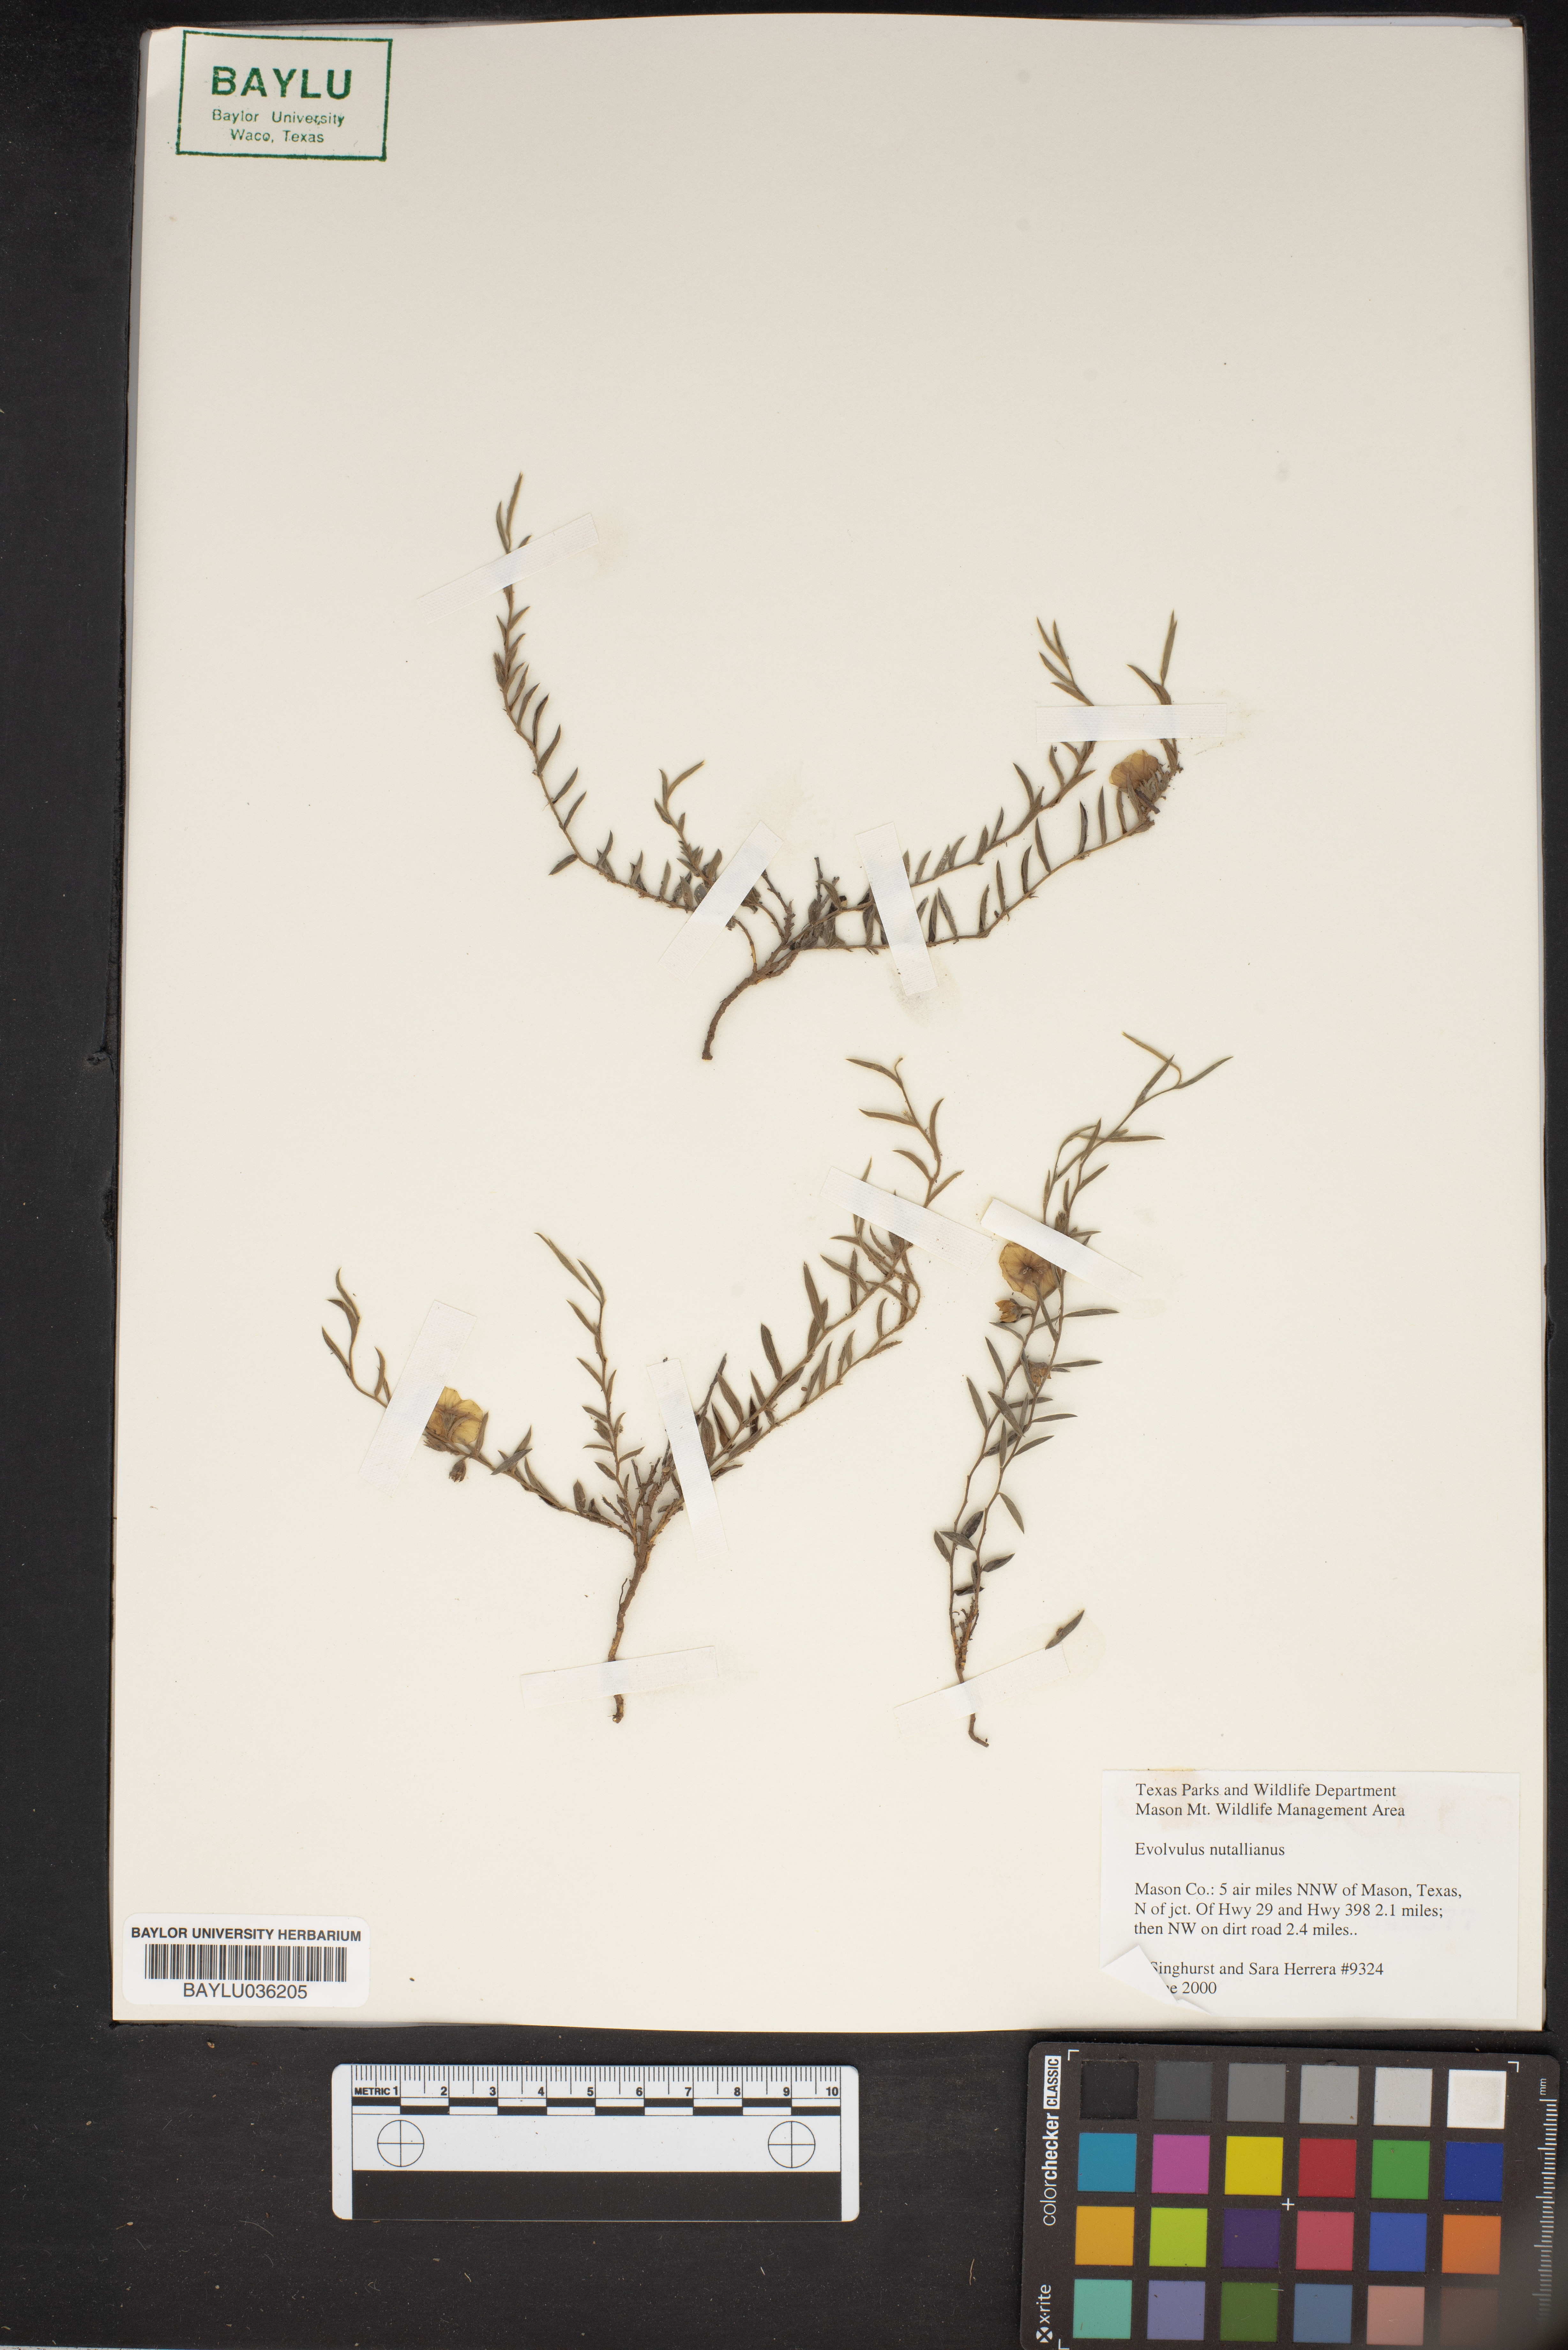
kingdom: Plantae
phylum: Tracheophyta
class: Magnoliopsida
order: Solanales
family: Convolvulaceae
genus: Evolvulus
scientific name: Evolvulus nuttallianus
